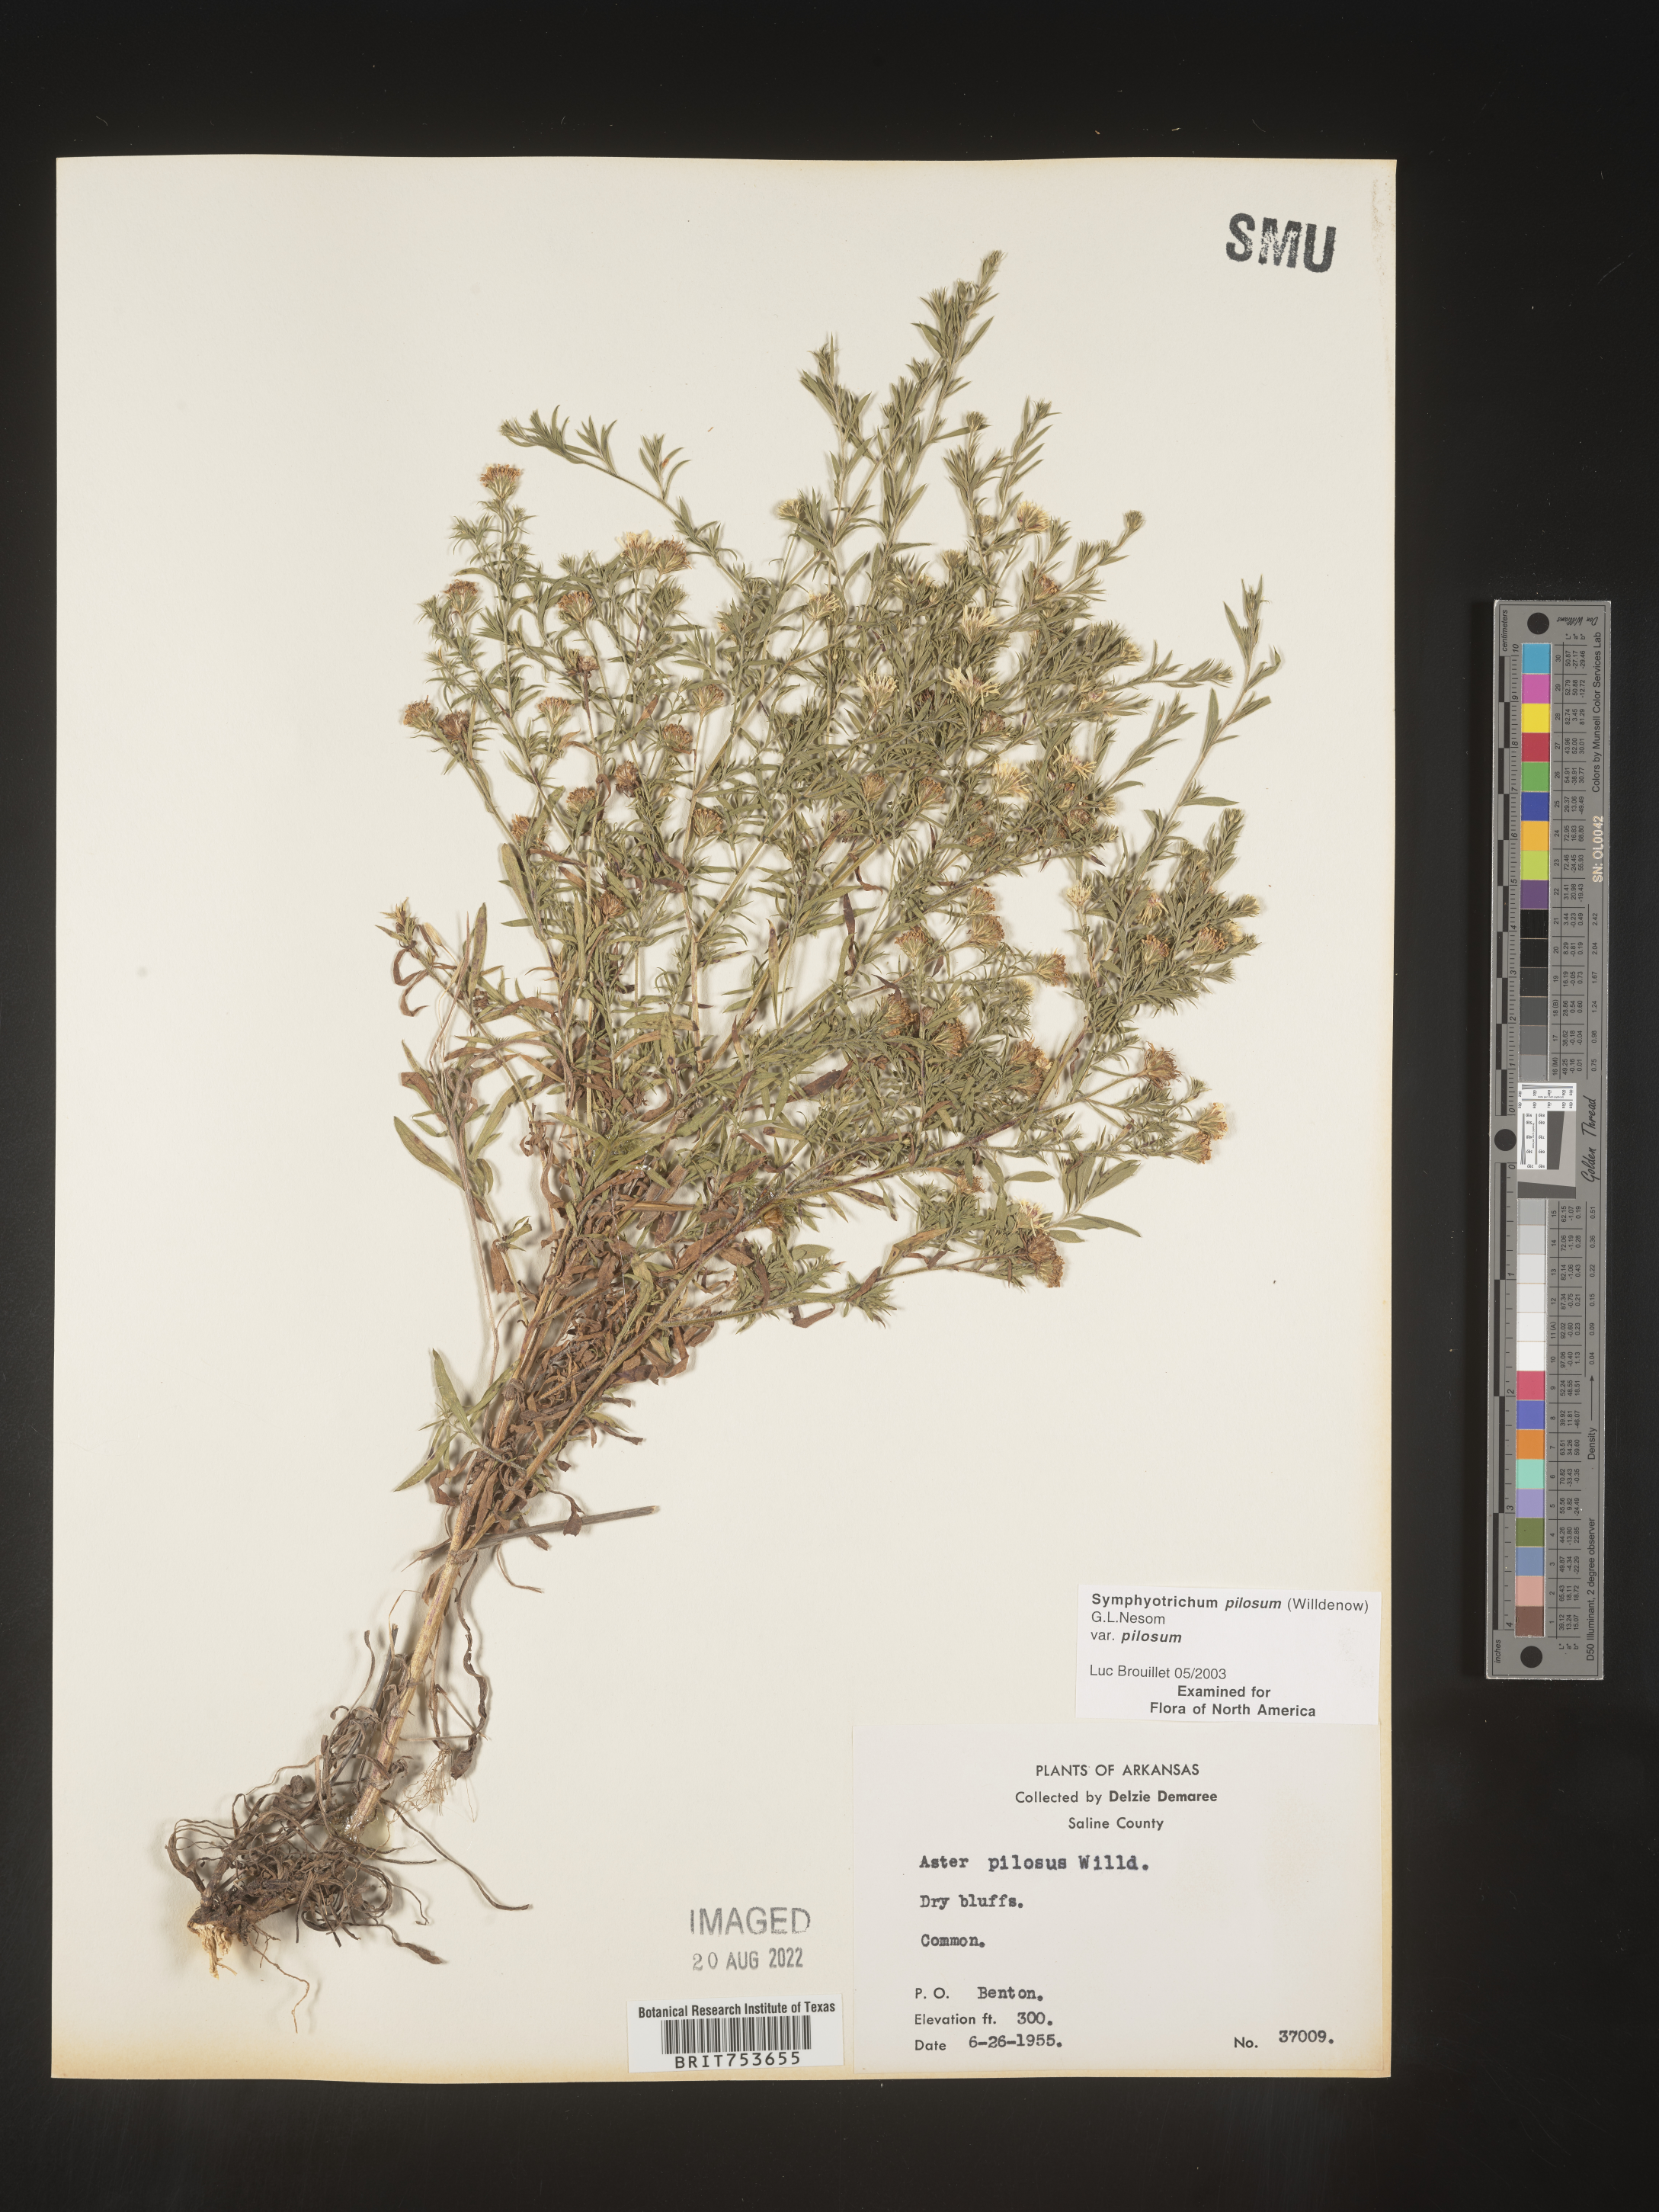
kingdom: Plantae
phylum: Tracheophyta
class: Magnoliopsida
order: Asterales
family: Asteraceae
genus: Symphyotrichum
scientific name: Symphyotrichum pilosum
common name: Awl aster
